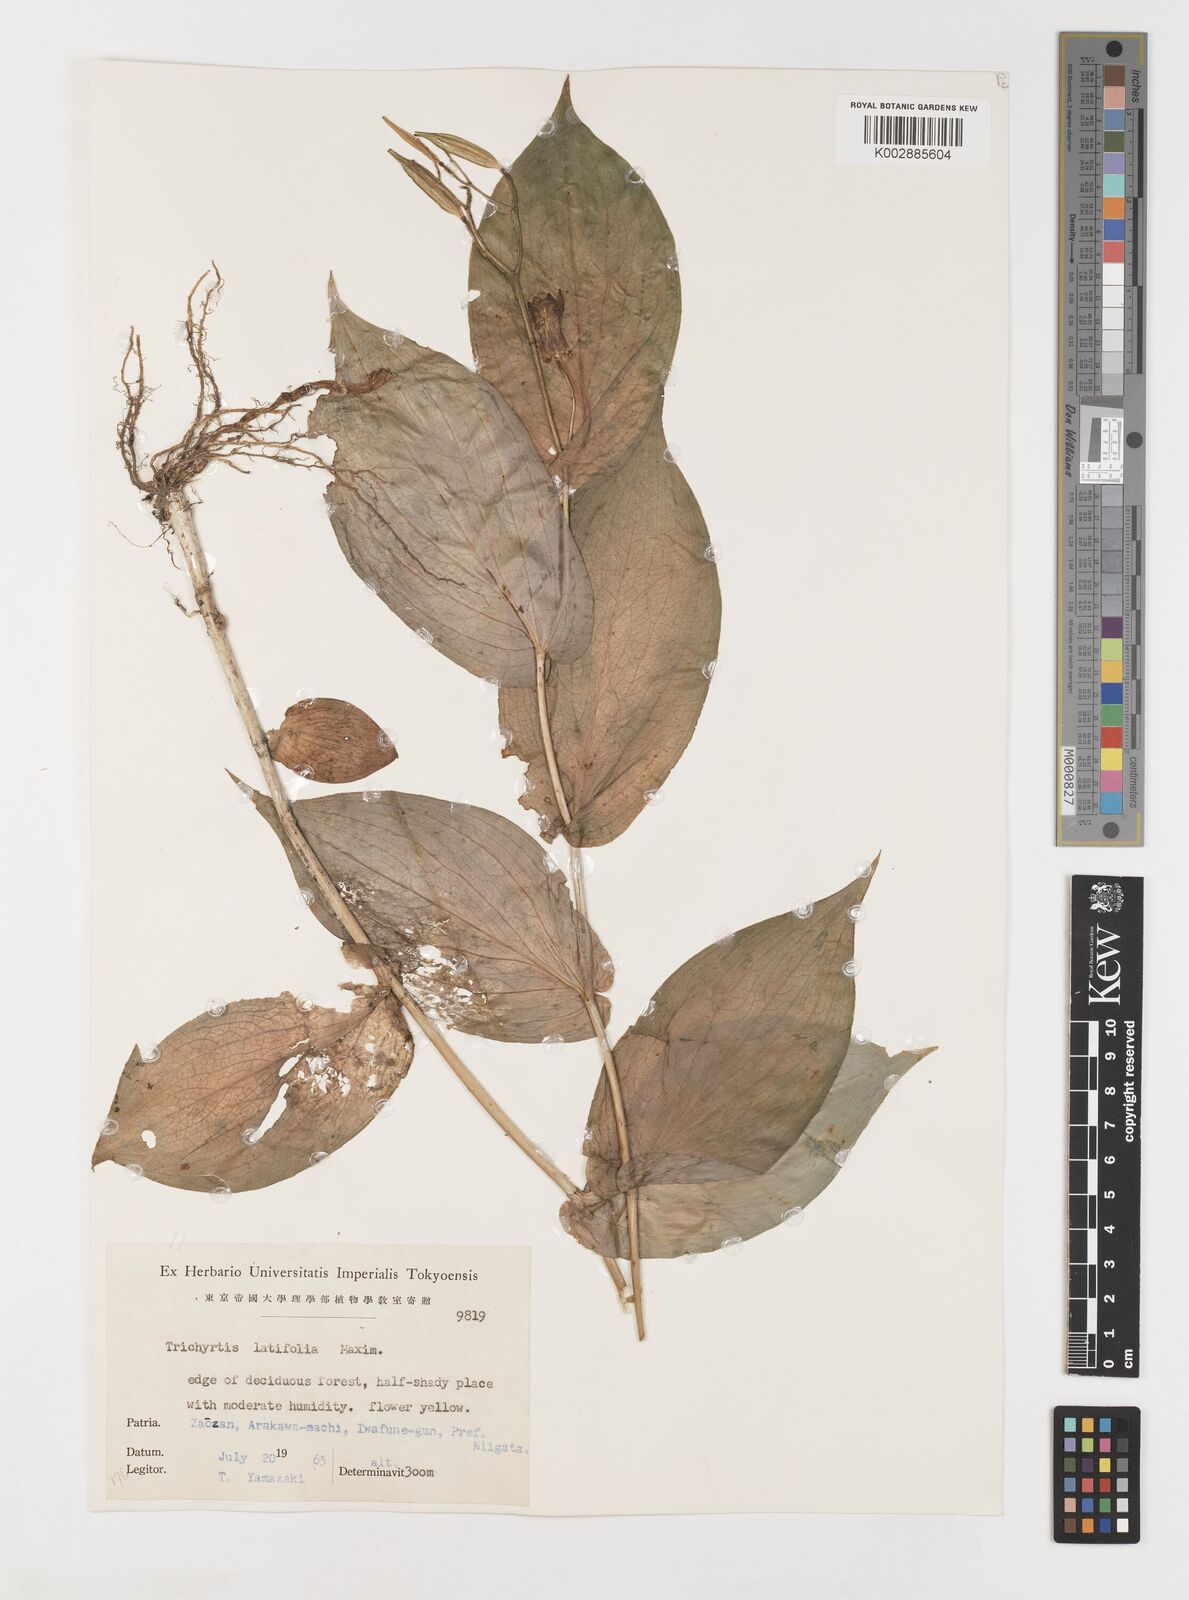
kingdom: Plantae
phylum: Tracheophyta
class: Liliopsida
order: Liliales
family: Liliaceae
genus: Tricyrtis
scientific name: Tricyrtis latifolia
